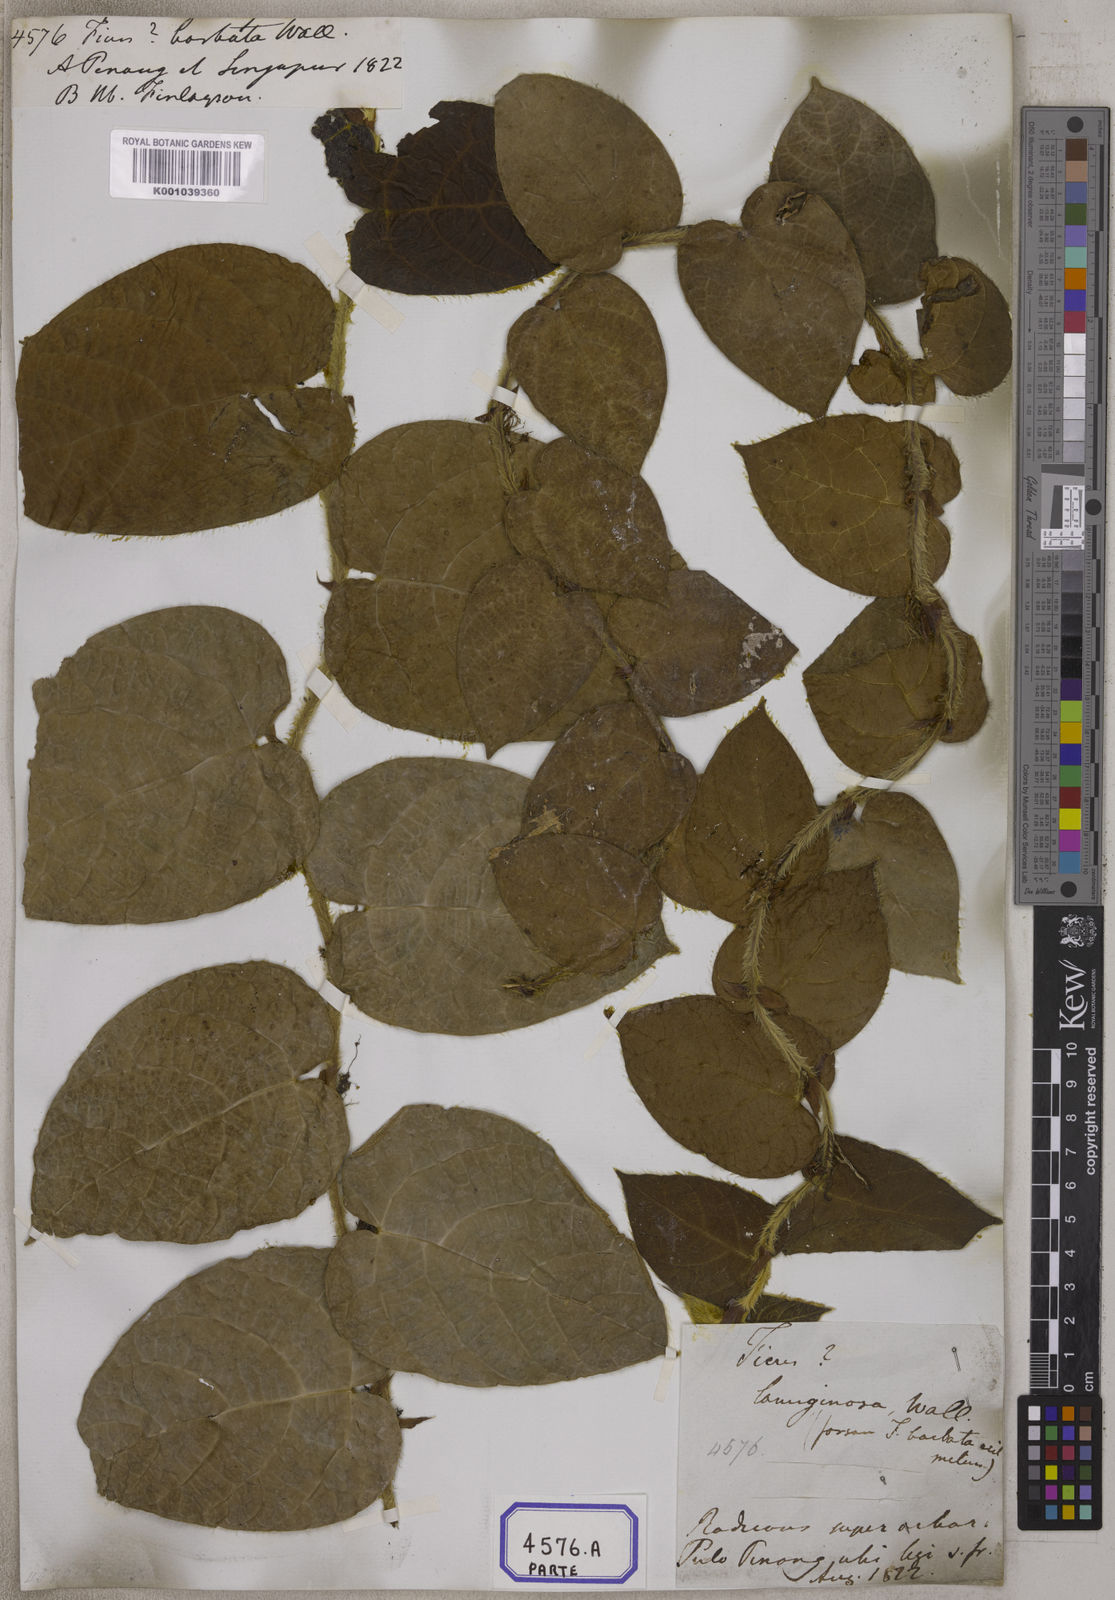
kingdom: Plantae
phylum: Tracheophyta
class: Magnoliopsida
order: Rosales
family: Moraceae
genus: Ficus
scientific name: Ficus
